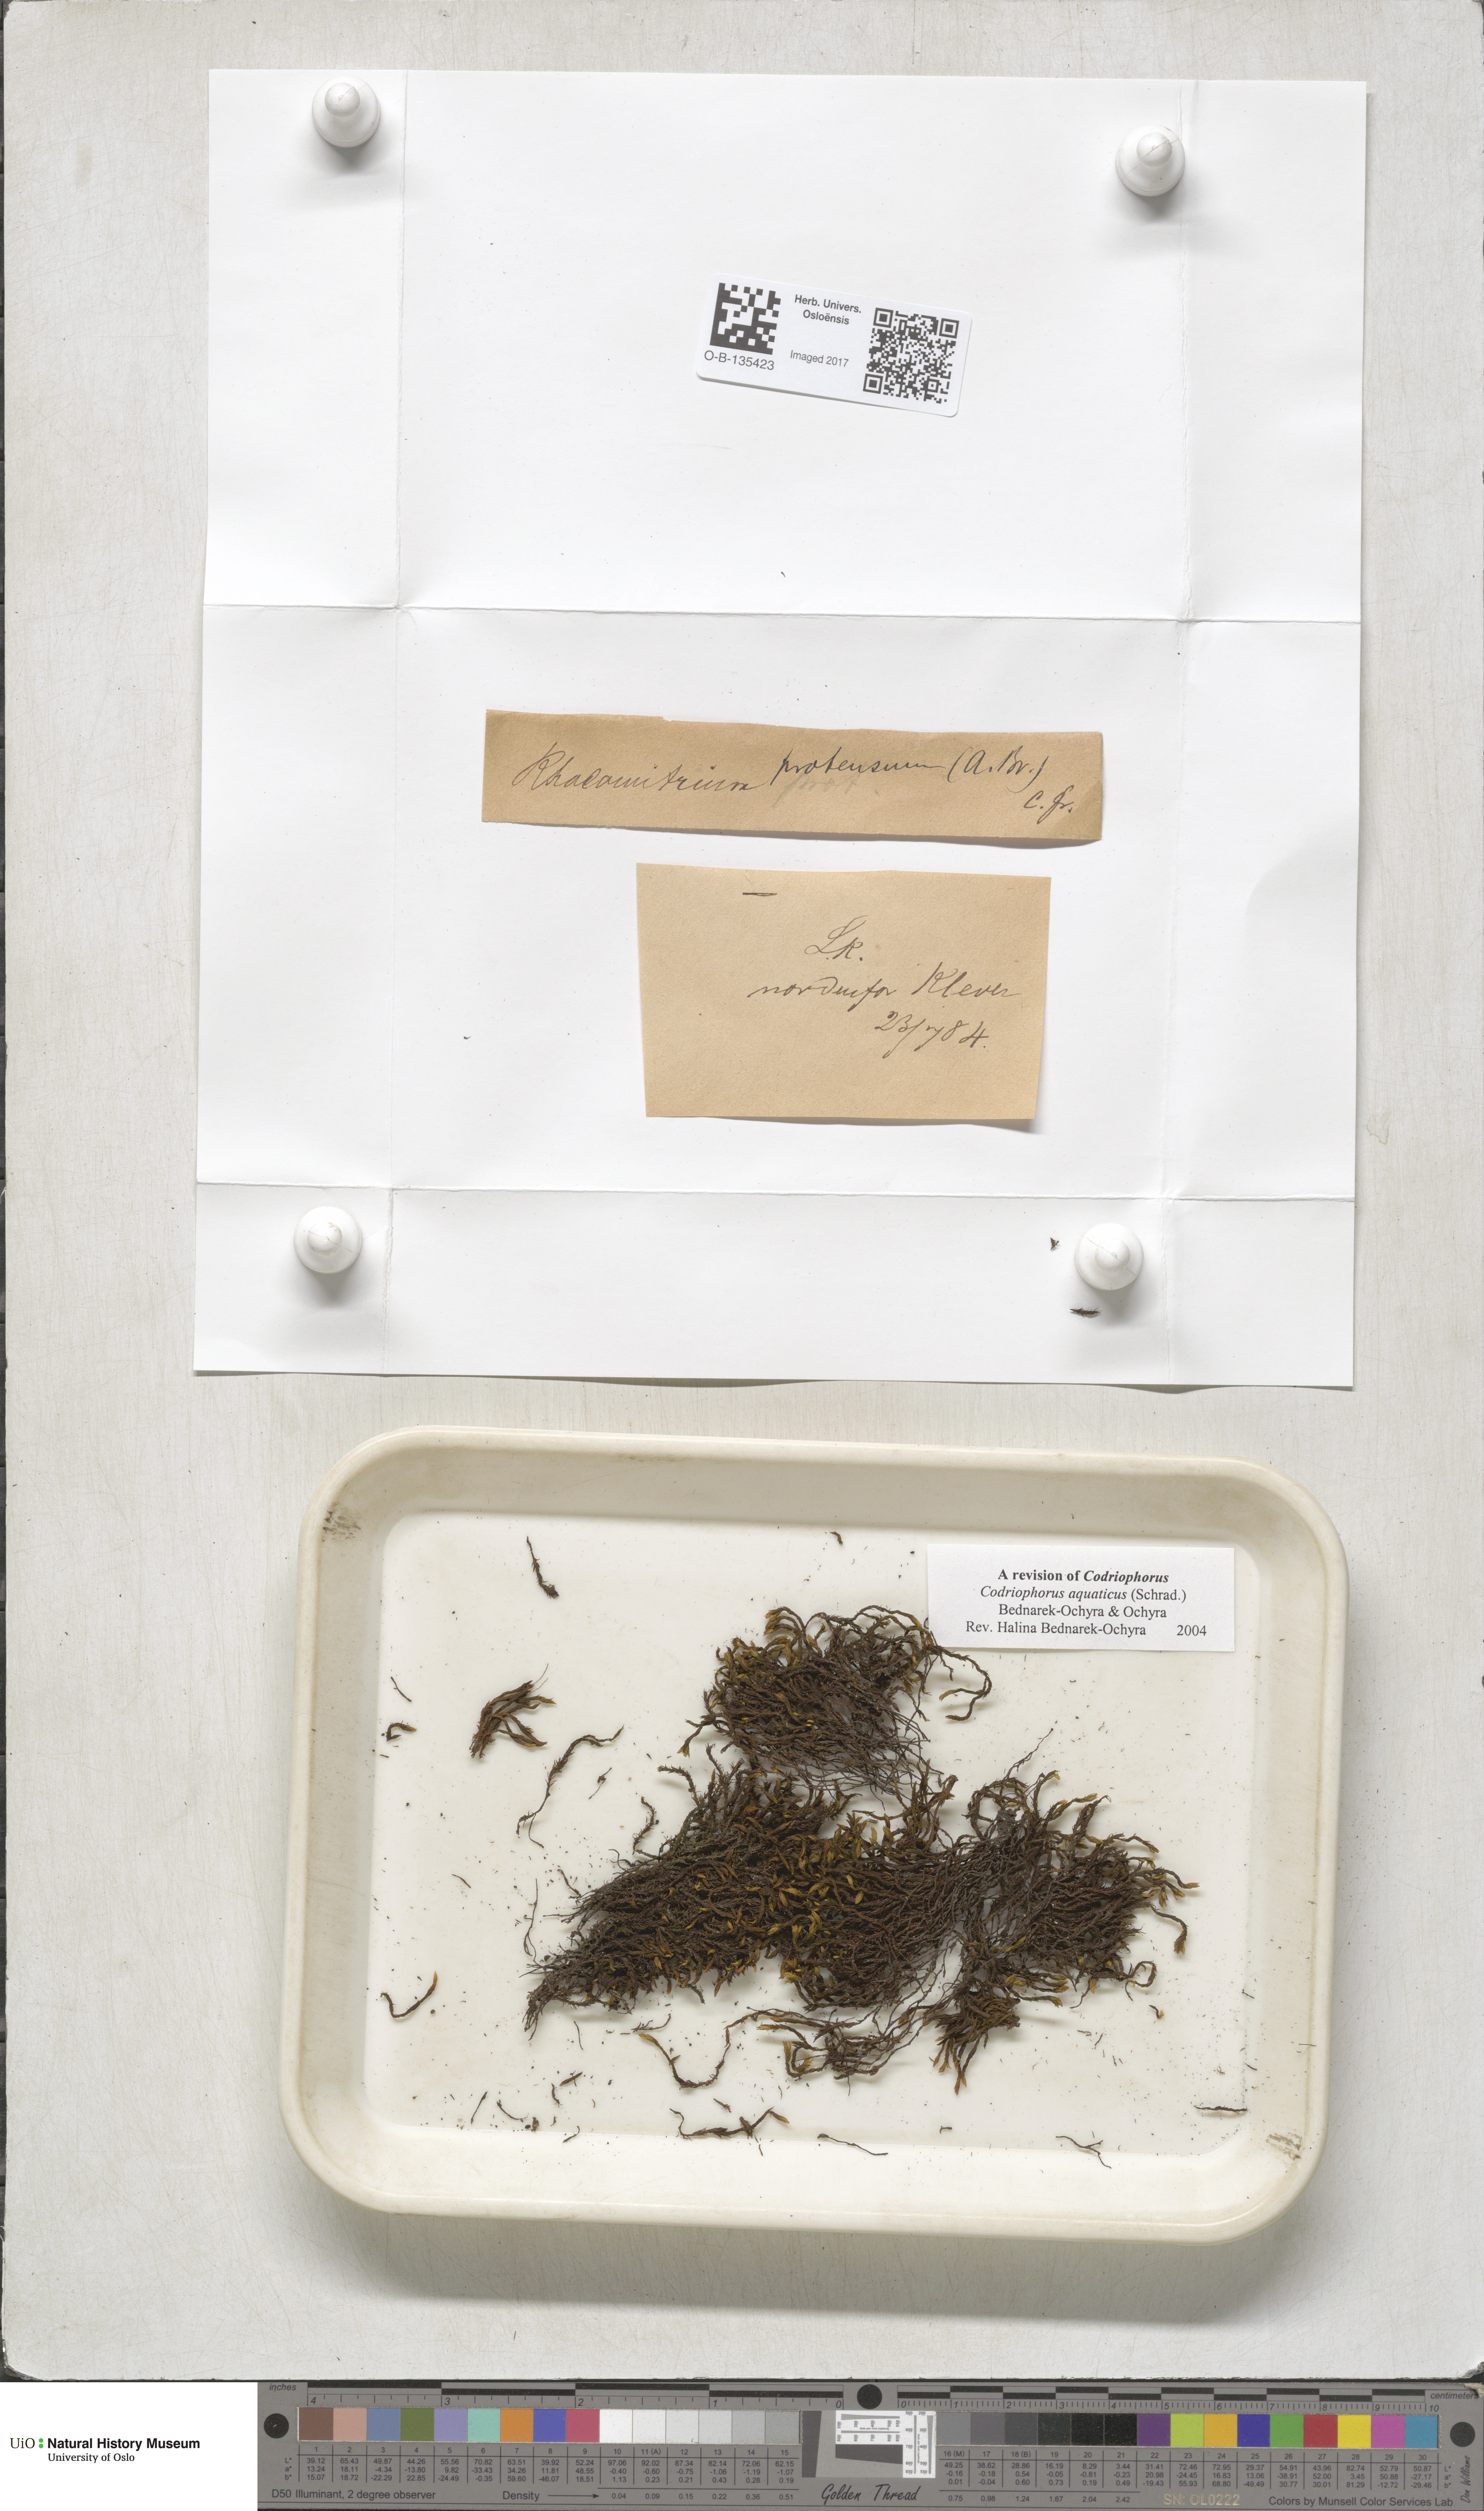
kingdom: Plantae
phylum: Bryophyta
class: Bryopsida
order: Grimmiales
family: Grimmiaceae
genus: Codriophorus
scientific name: Codriophorus aquaticus
